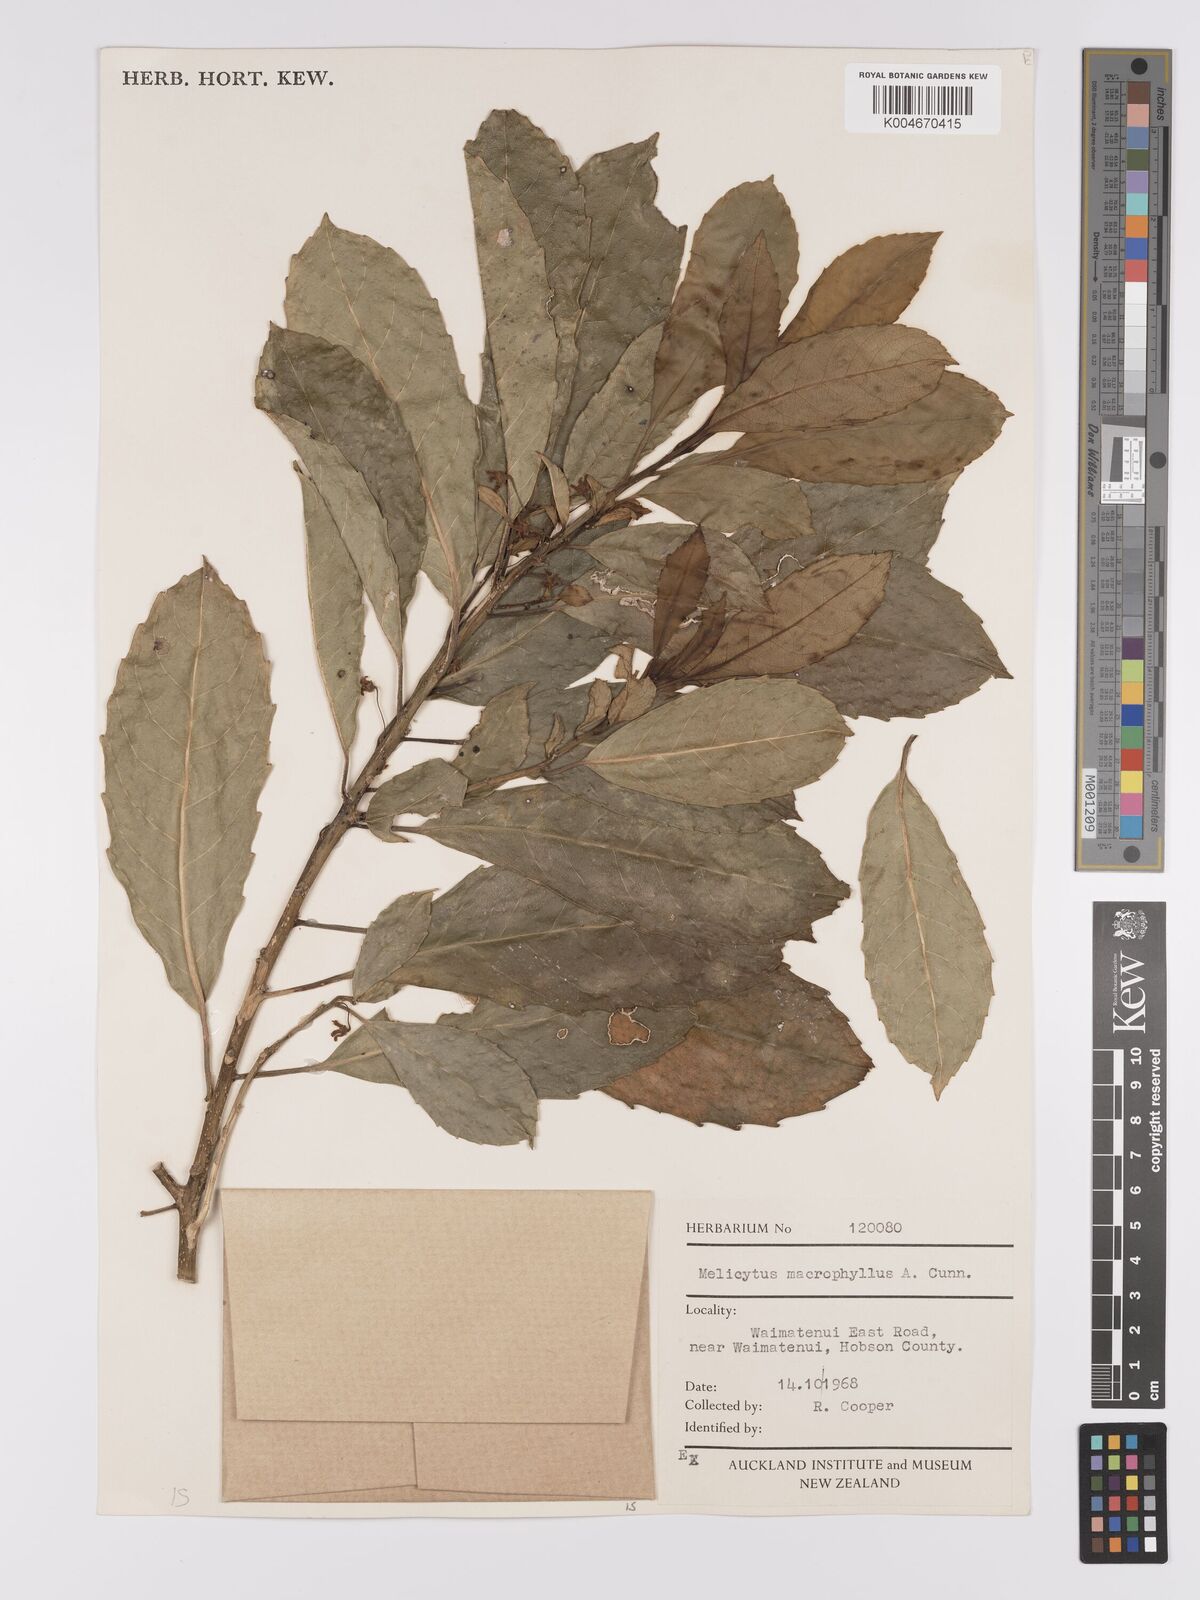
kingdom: Plantae
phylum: Tracheophyta
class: Magnoliopsida
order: Malpighiales
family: Violaceae
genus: Melicytus
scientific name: Melicytus macrophyllus
